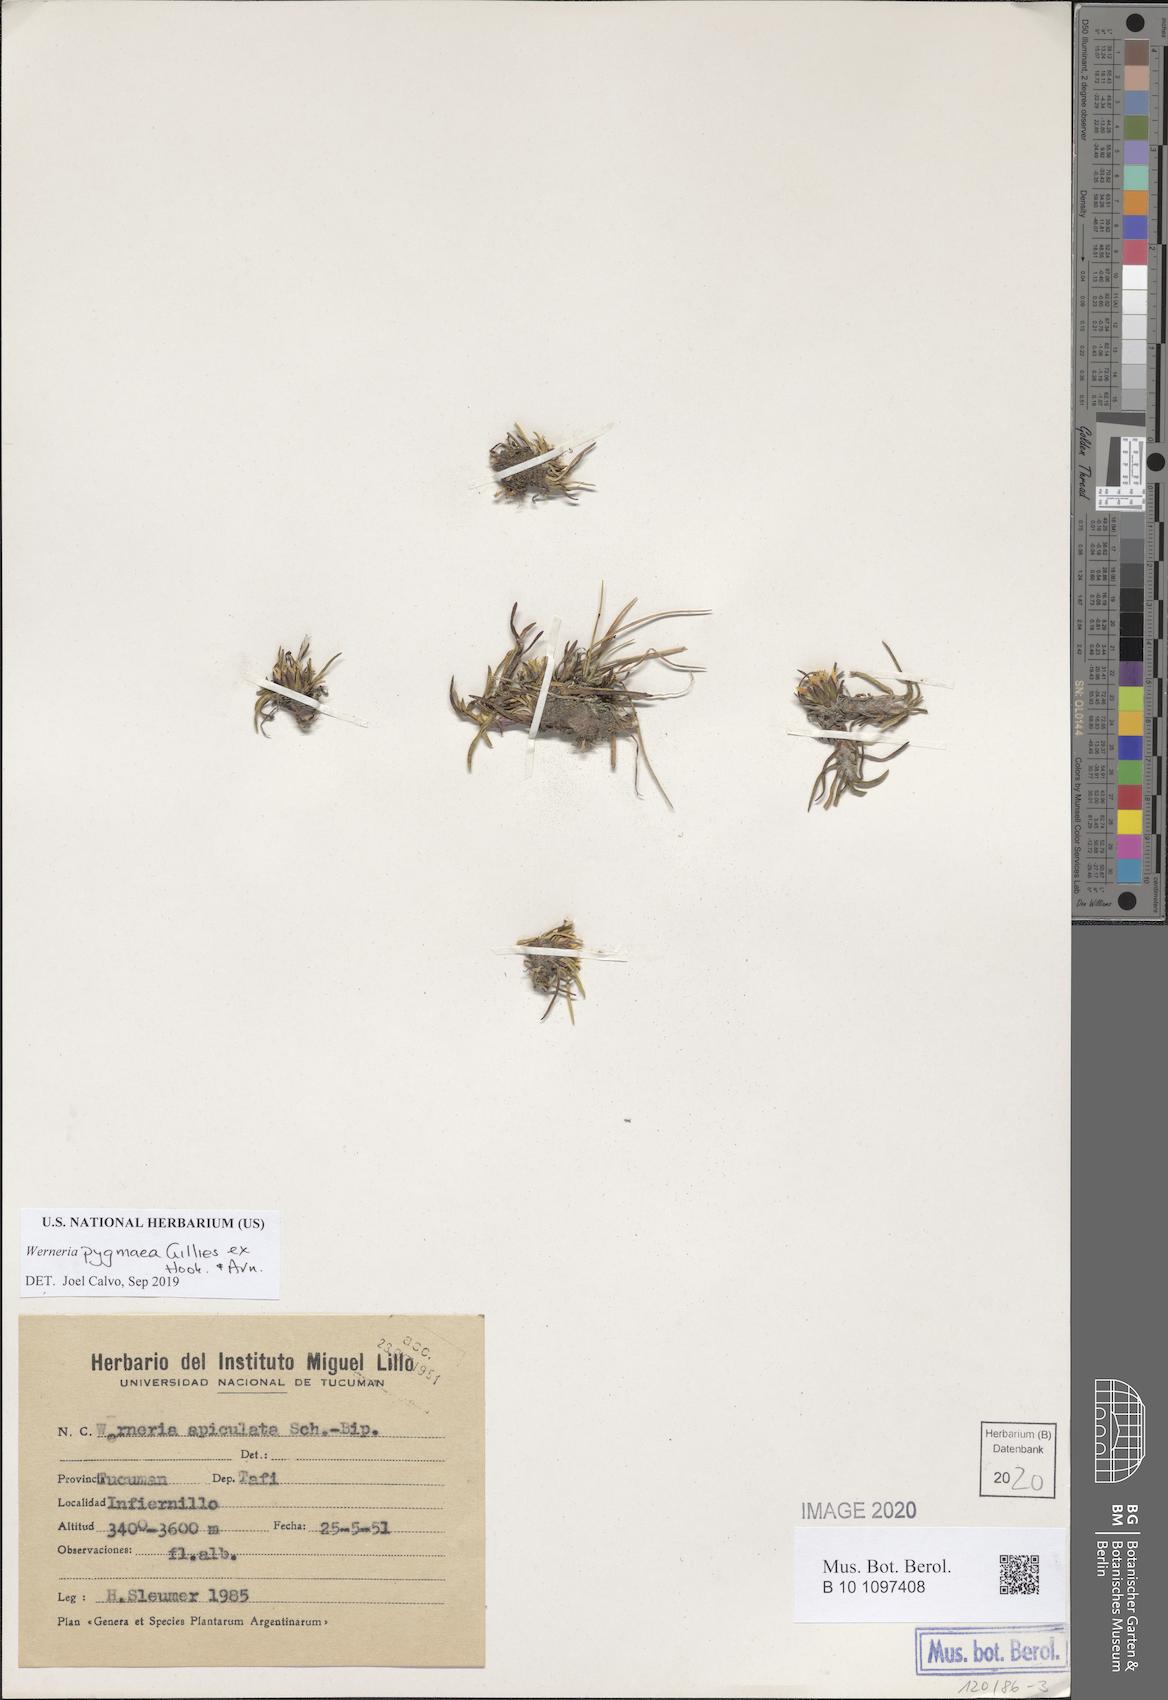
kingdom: Plantae
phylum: Tracheophyta
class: Magnoliopsida
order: Asterales
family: Asteraceae
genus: Rockhausenia
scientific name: Rockhausenia pygmaea
